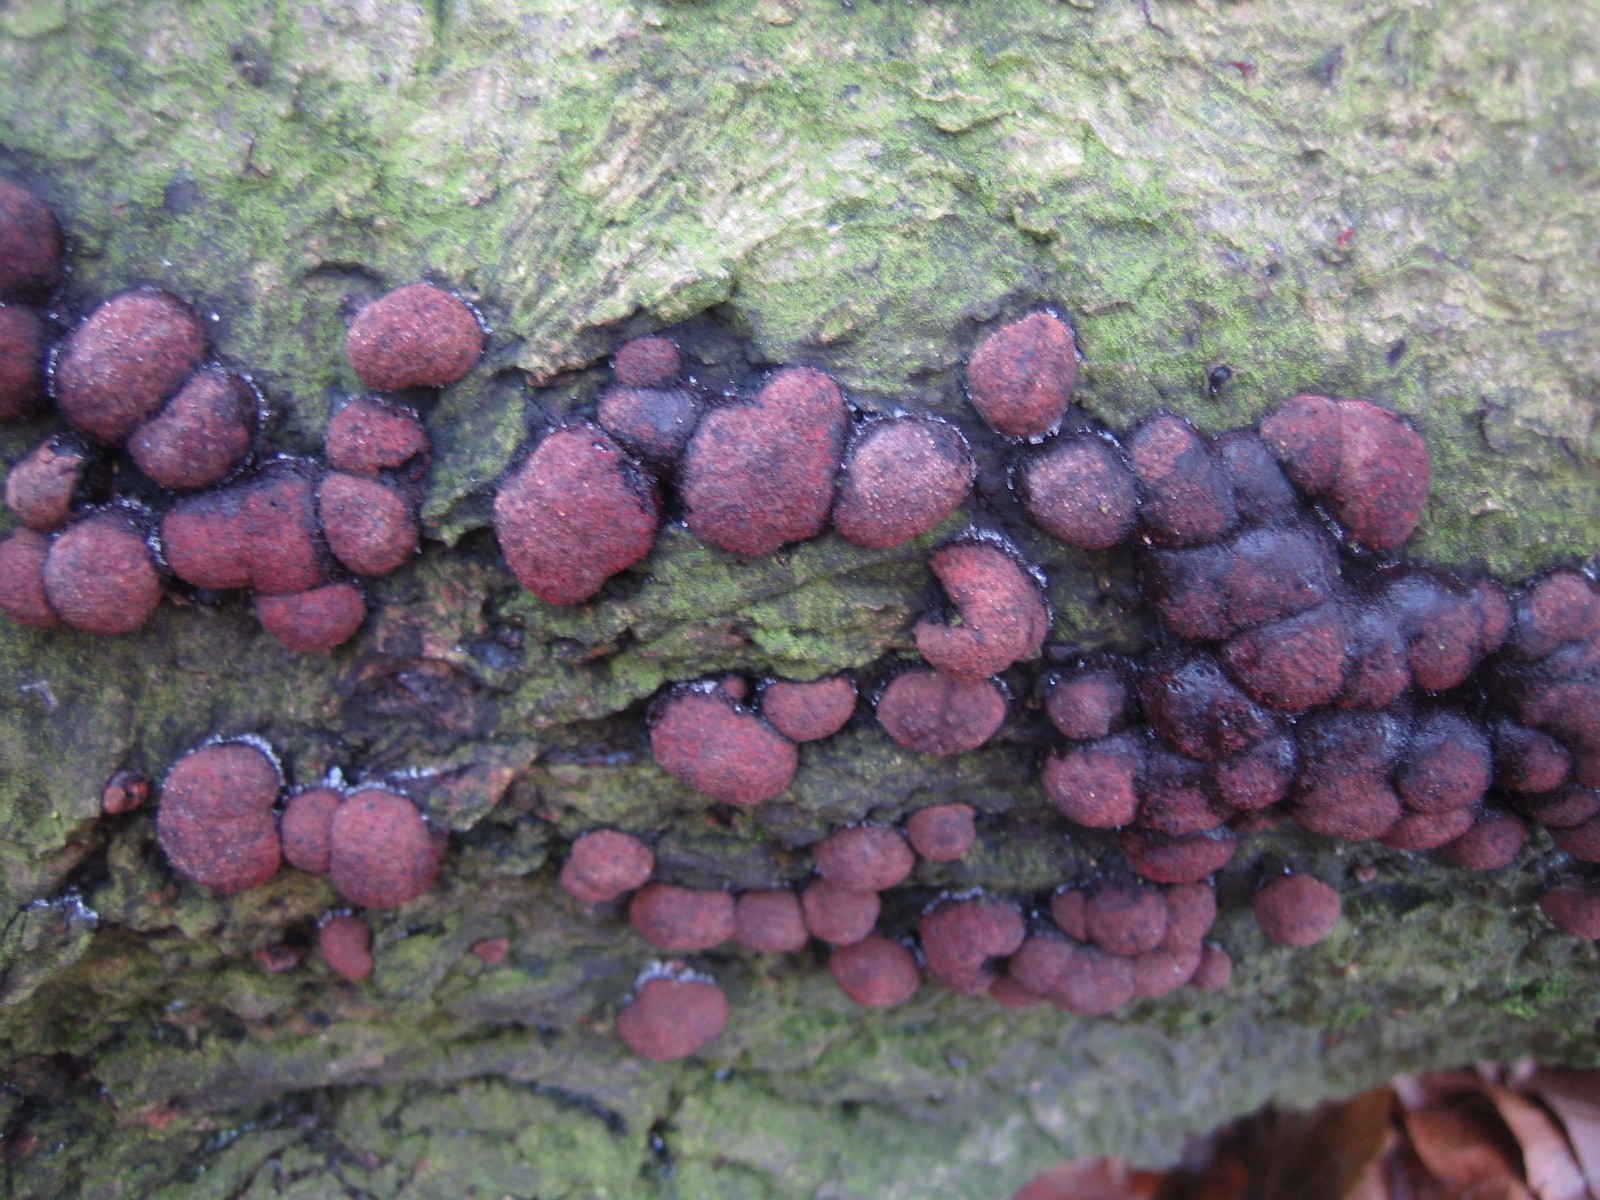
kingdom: Fungi
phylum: Ascomycota
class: Sordariomycetes
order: Xylariales
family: Hypoxylaceae
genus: Hypoxylon
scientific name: Hypoxylon fragiforme
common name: kuljordbær
